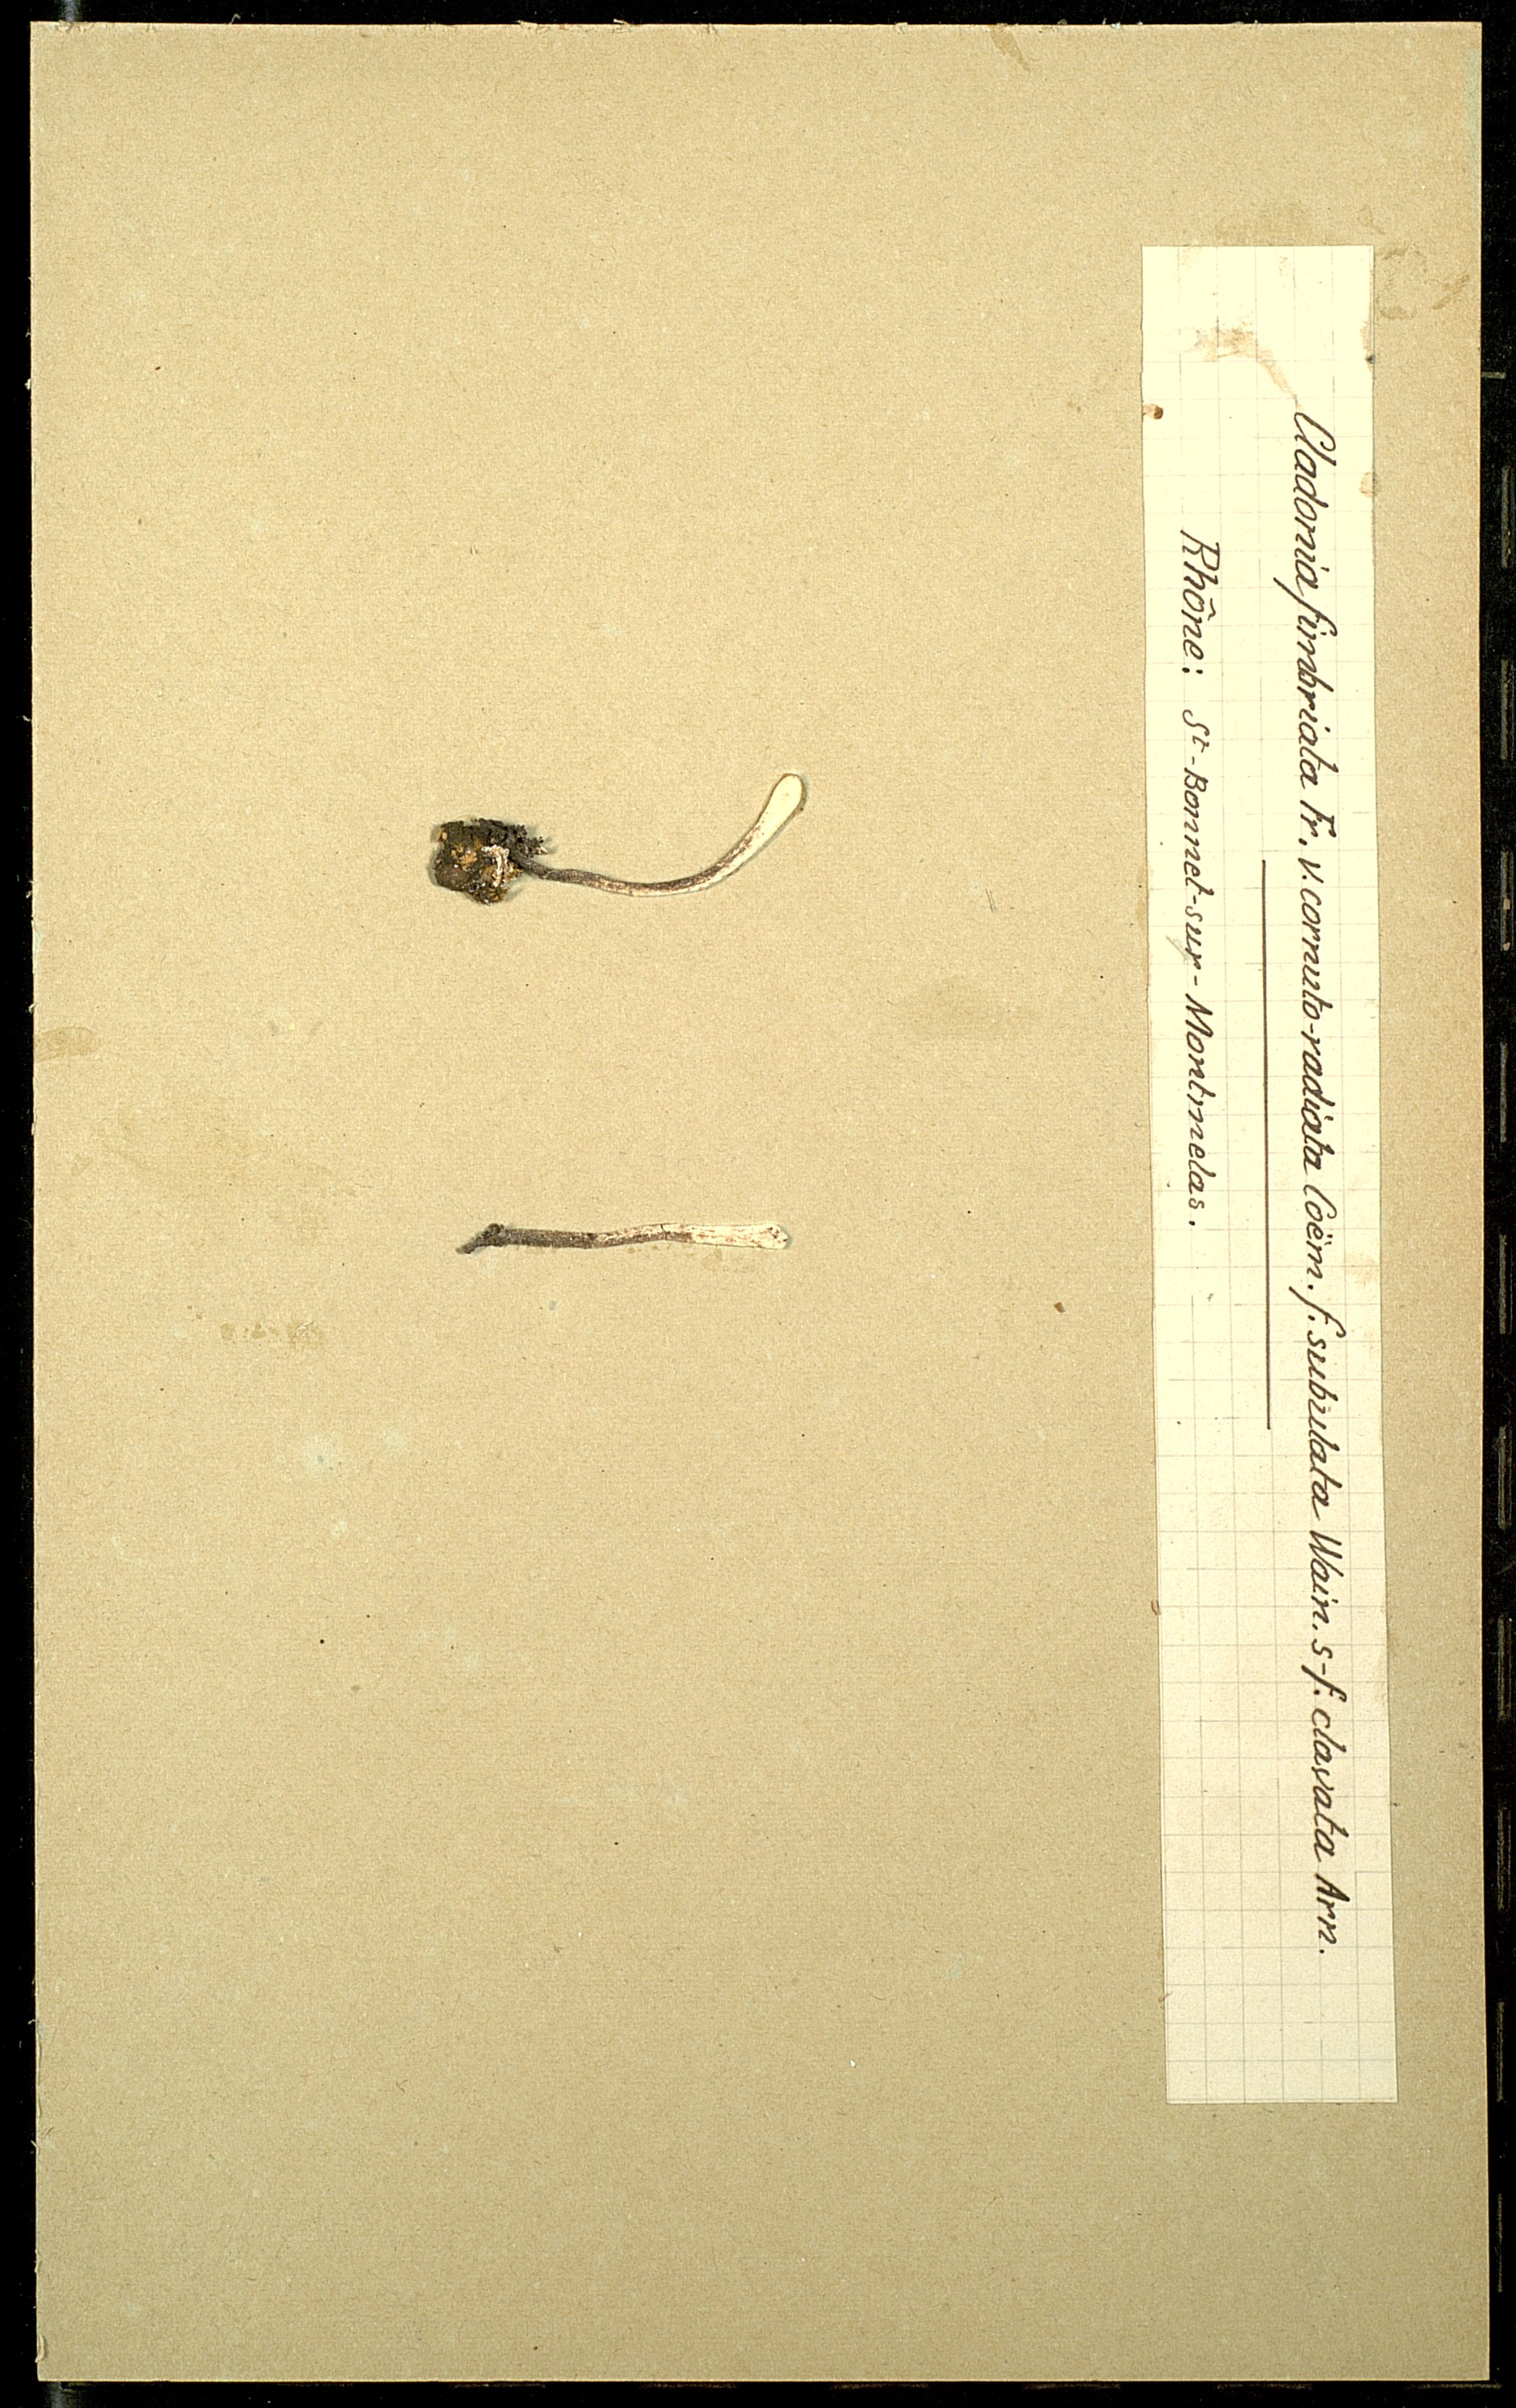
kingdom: Fungi
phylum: Ascomycota
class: Lecanoromycetes
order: Lecanorales
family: Cladoniaceae
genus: Cladonia
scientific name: Cladonia subulata
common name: Antlered powderhorn
